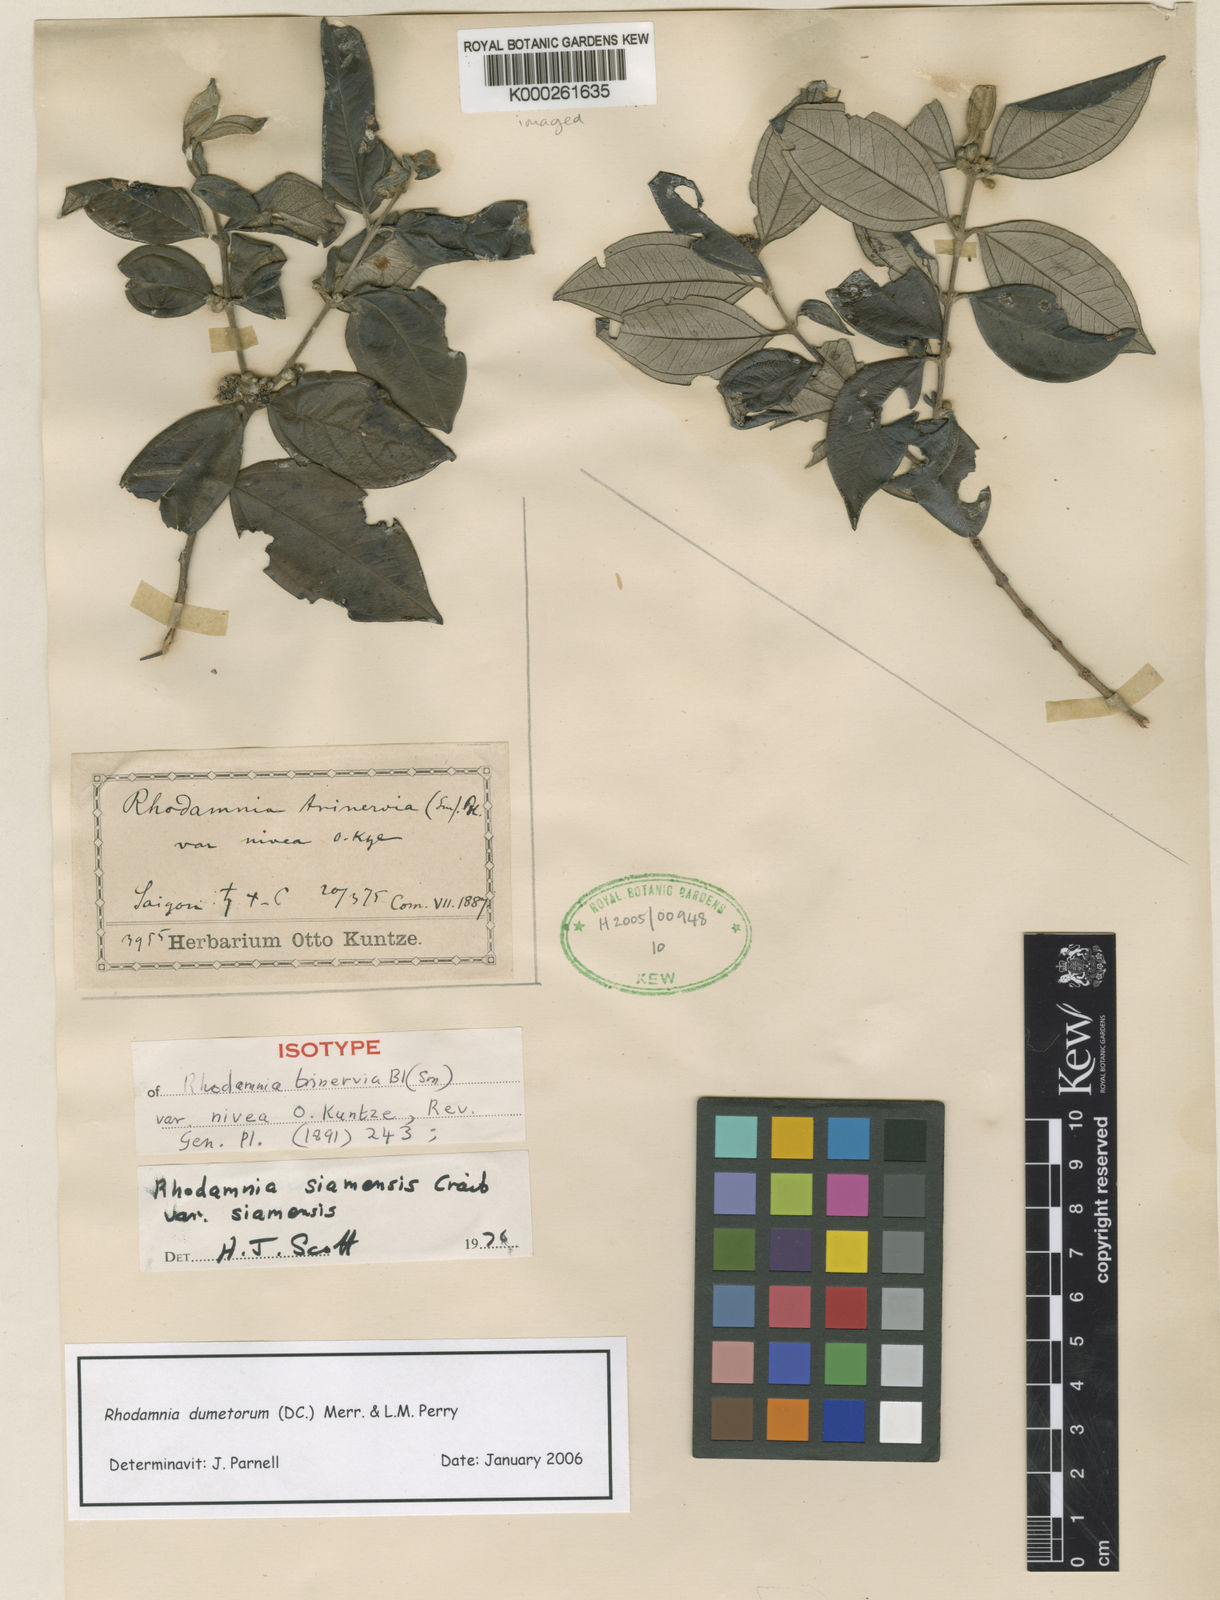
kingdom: Plantae
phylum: Tracheophyta
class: Magnoliopsida
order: Myrtales
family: Myrtaceae
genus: Rhodamnia
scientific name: Rhodamnia dumetorum
